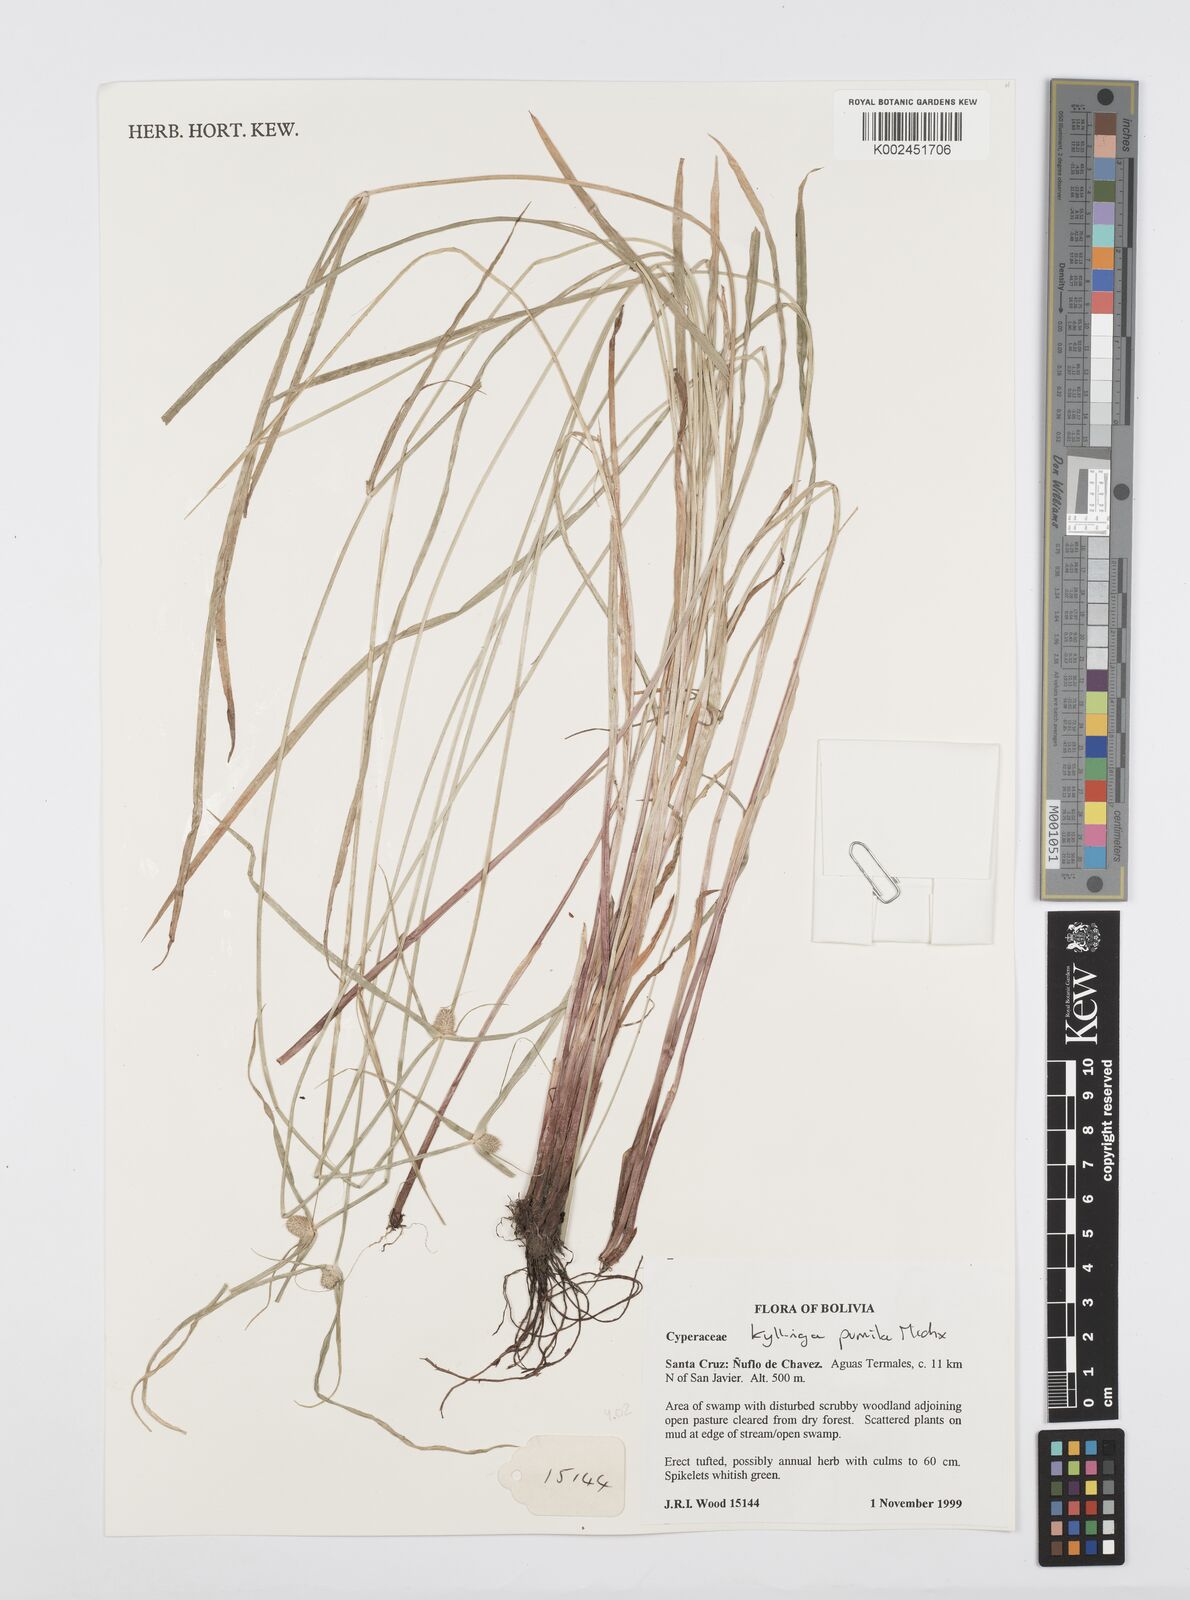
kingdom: Plantae
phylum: Tracheophyta
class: Liliopsida
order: Poales
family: Cyperaceae
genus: Cyperus
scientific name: Cyperus
